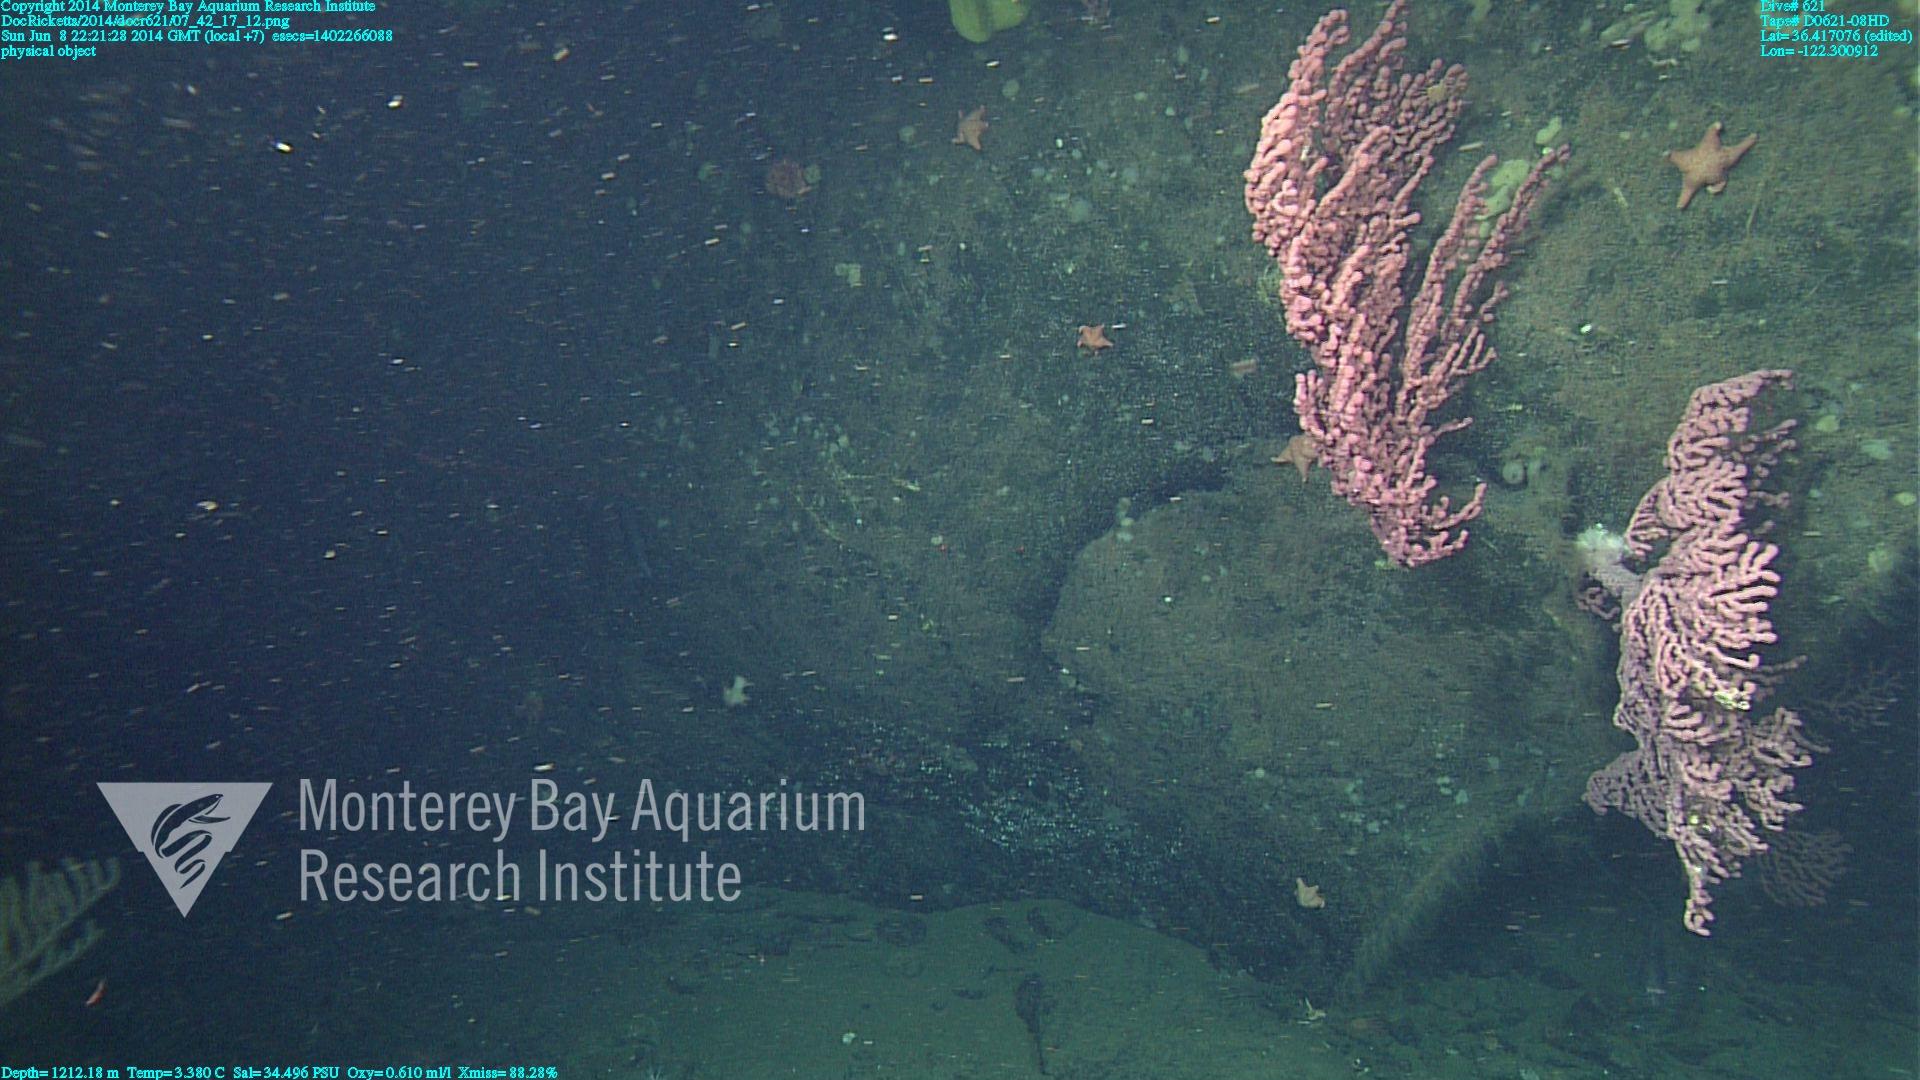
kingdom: Animalia
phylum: Cnidaria
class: Anthozoa
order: Scleralcyonacea
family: Coralliidae
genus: Paragorgia
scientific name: Paragorgia arborea
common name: Bubble gum coral
